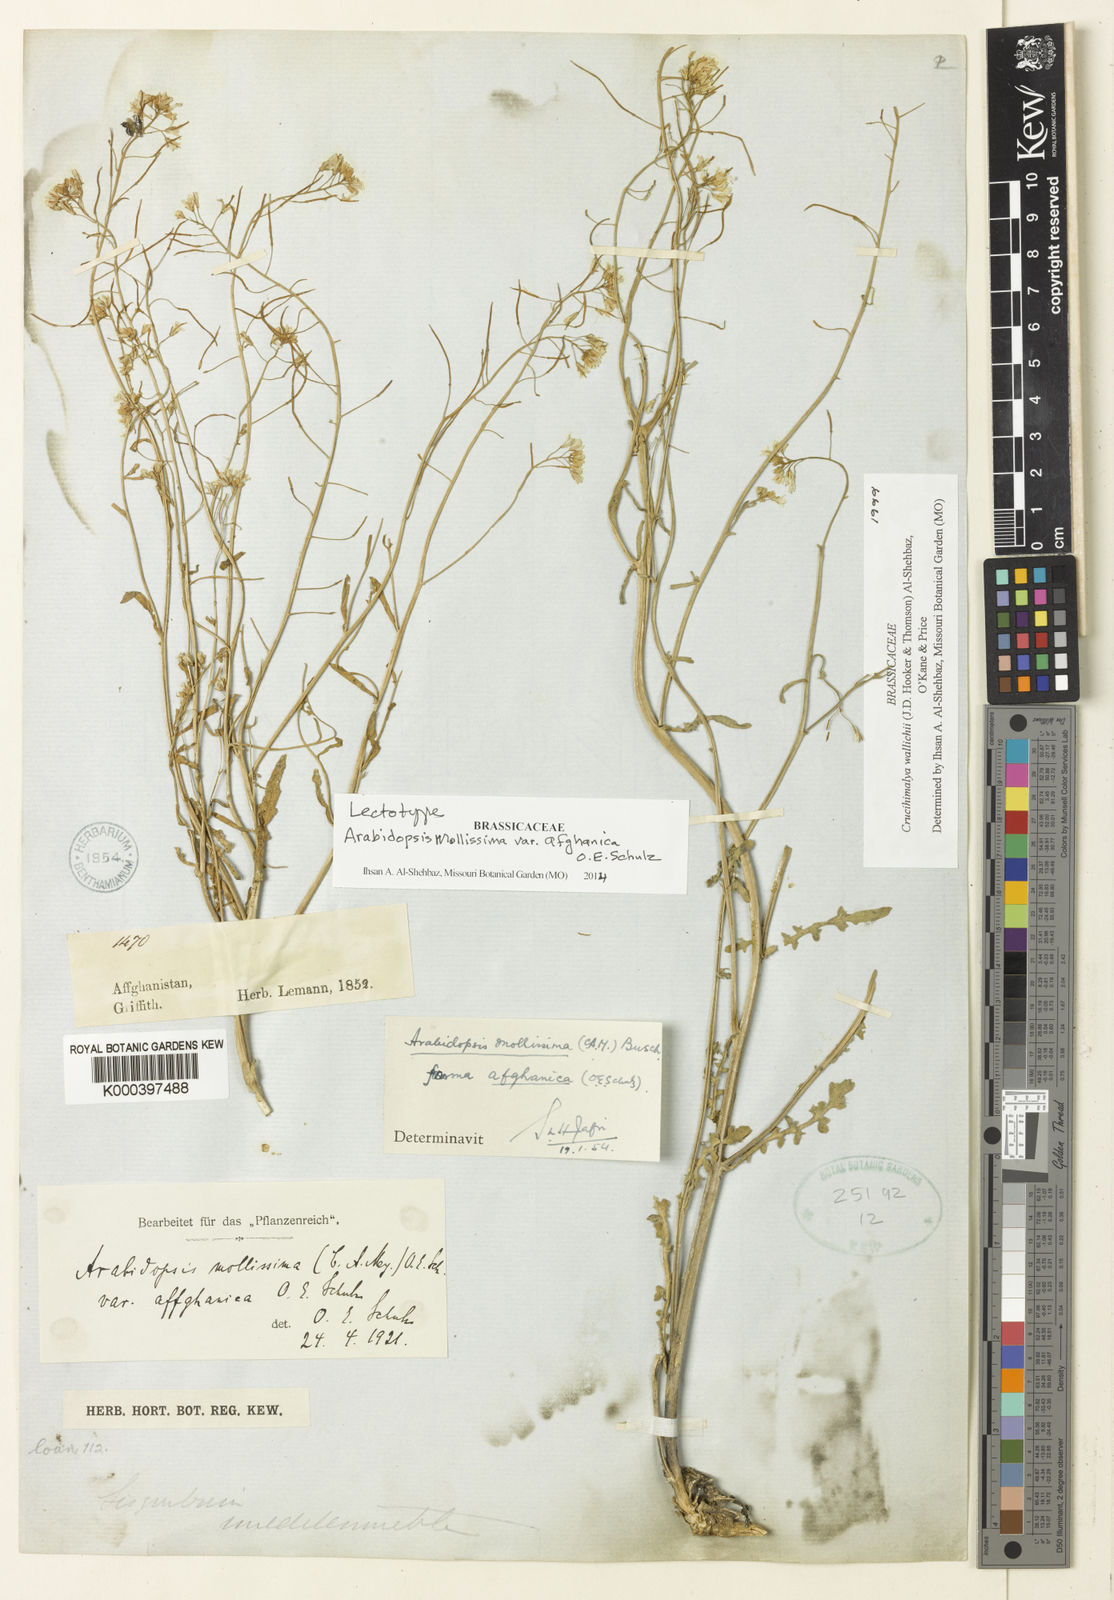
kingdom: Plantae
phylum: Tracheophyta
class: Magnoliopsida
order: Brassicales
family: Brassicaceae
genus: Crucihimalaya
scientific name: Crucihimalaya wallichii
